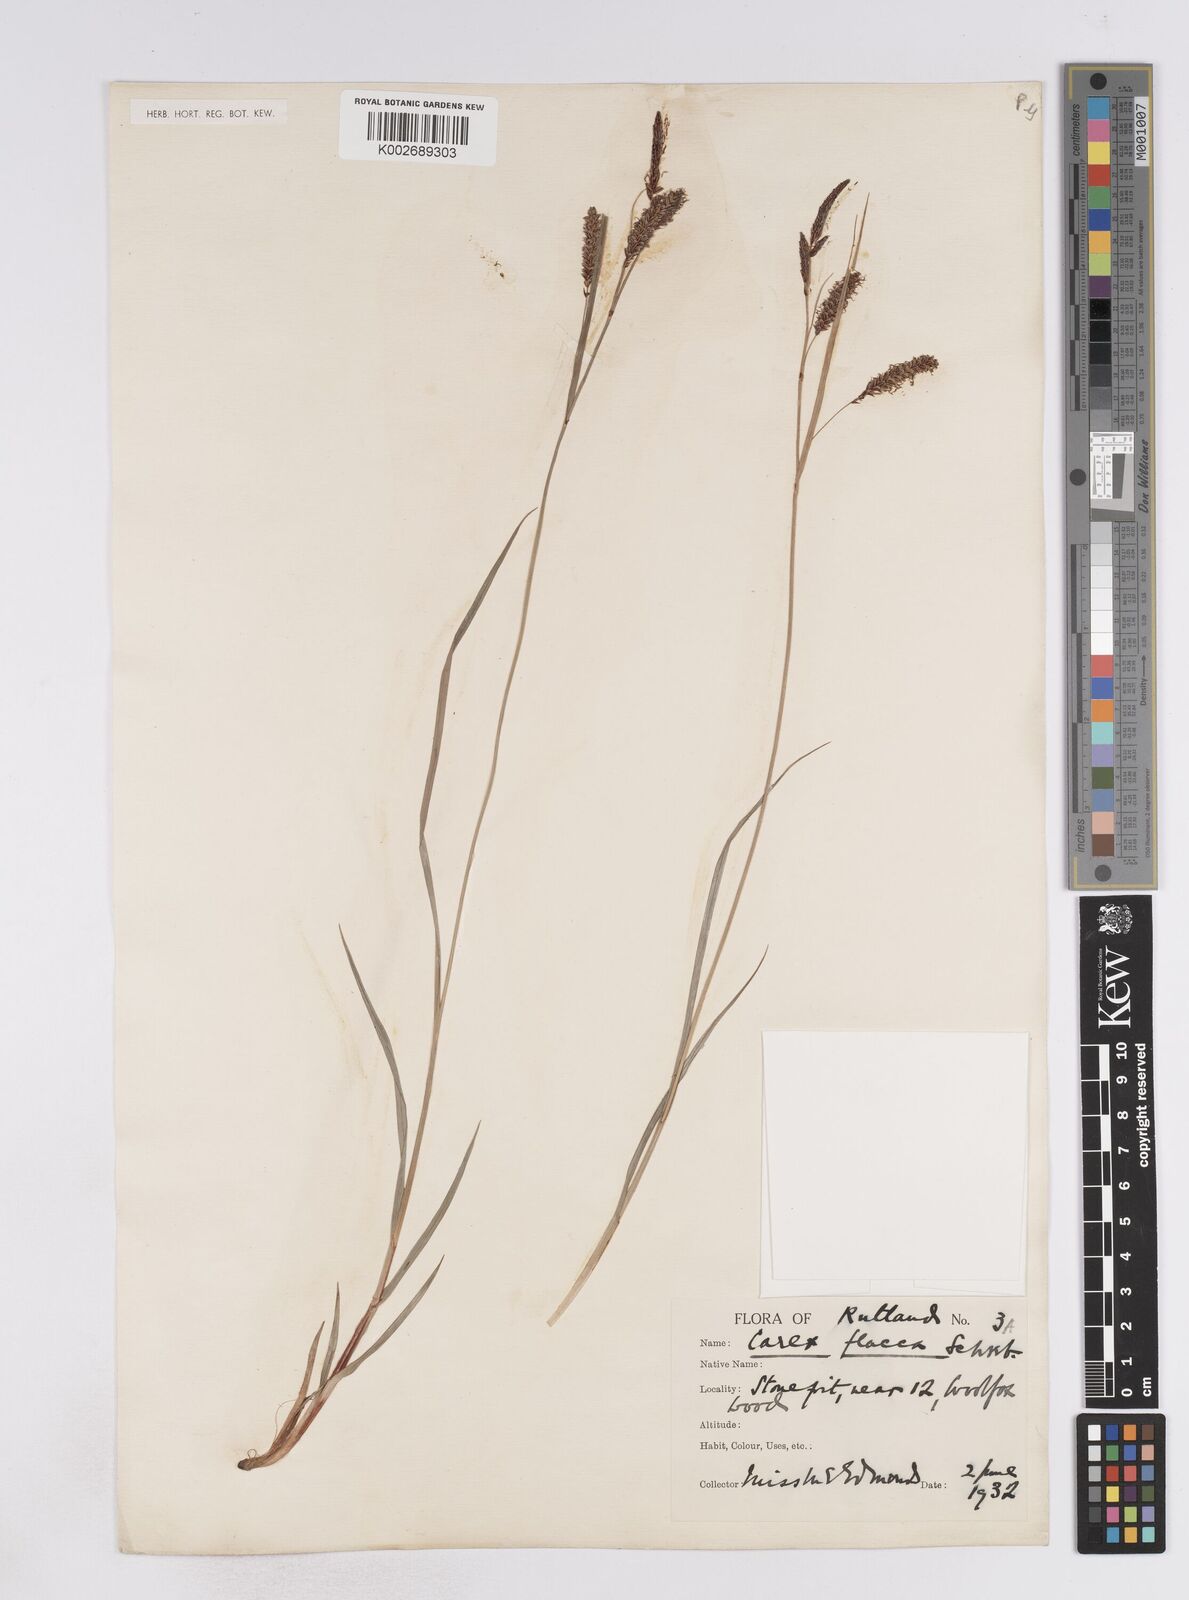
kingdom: Plantae
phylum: Tracheophyta
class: Liliopsida
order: Poales
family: Cyperaceae
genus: Carex
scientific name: Carex flacca
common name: Glaucous sedge
